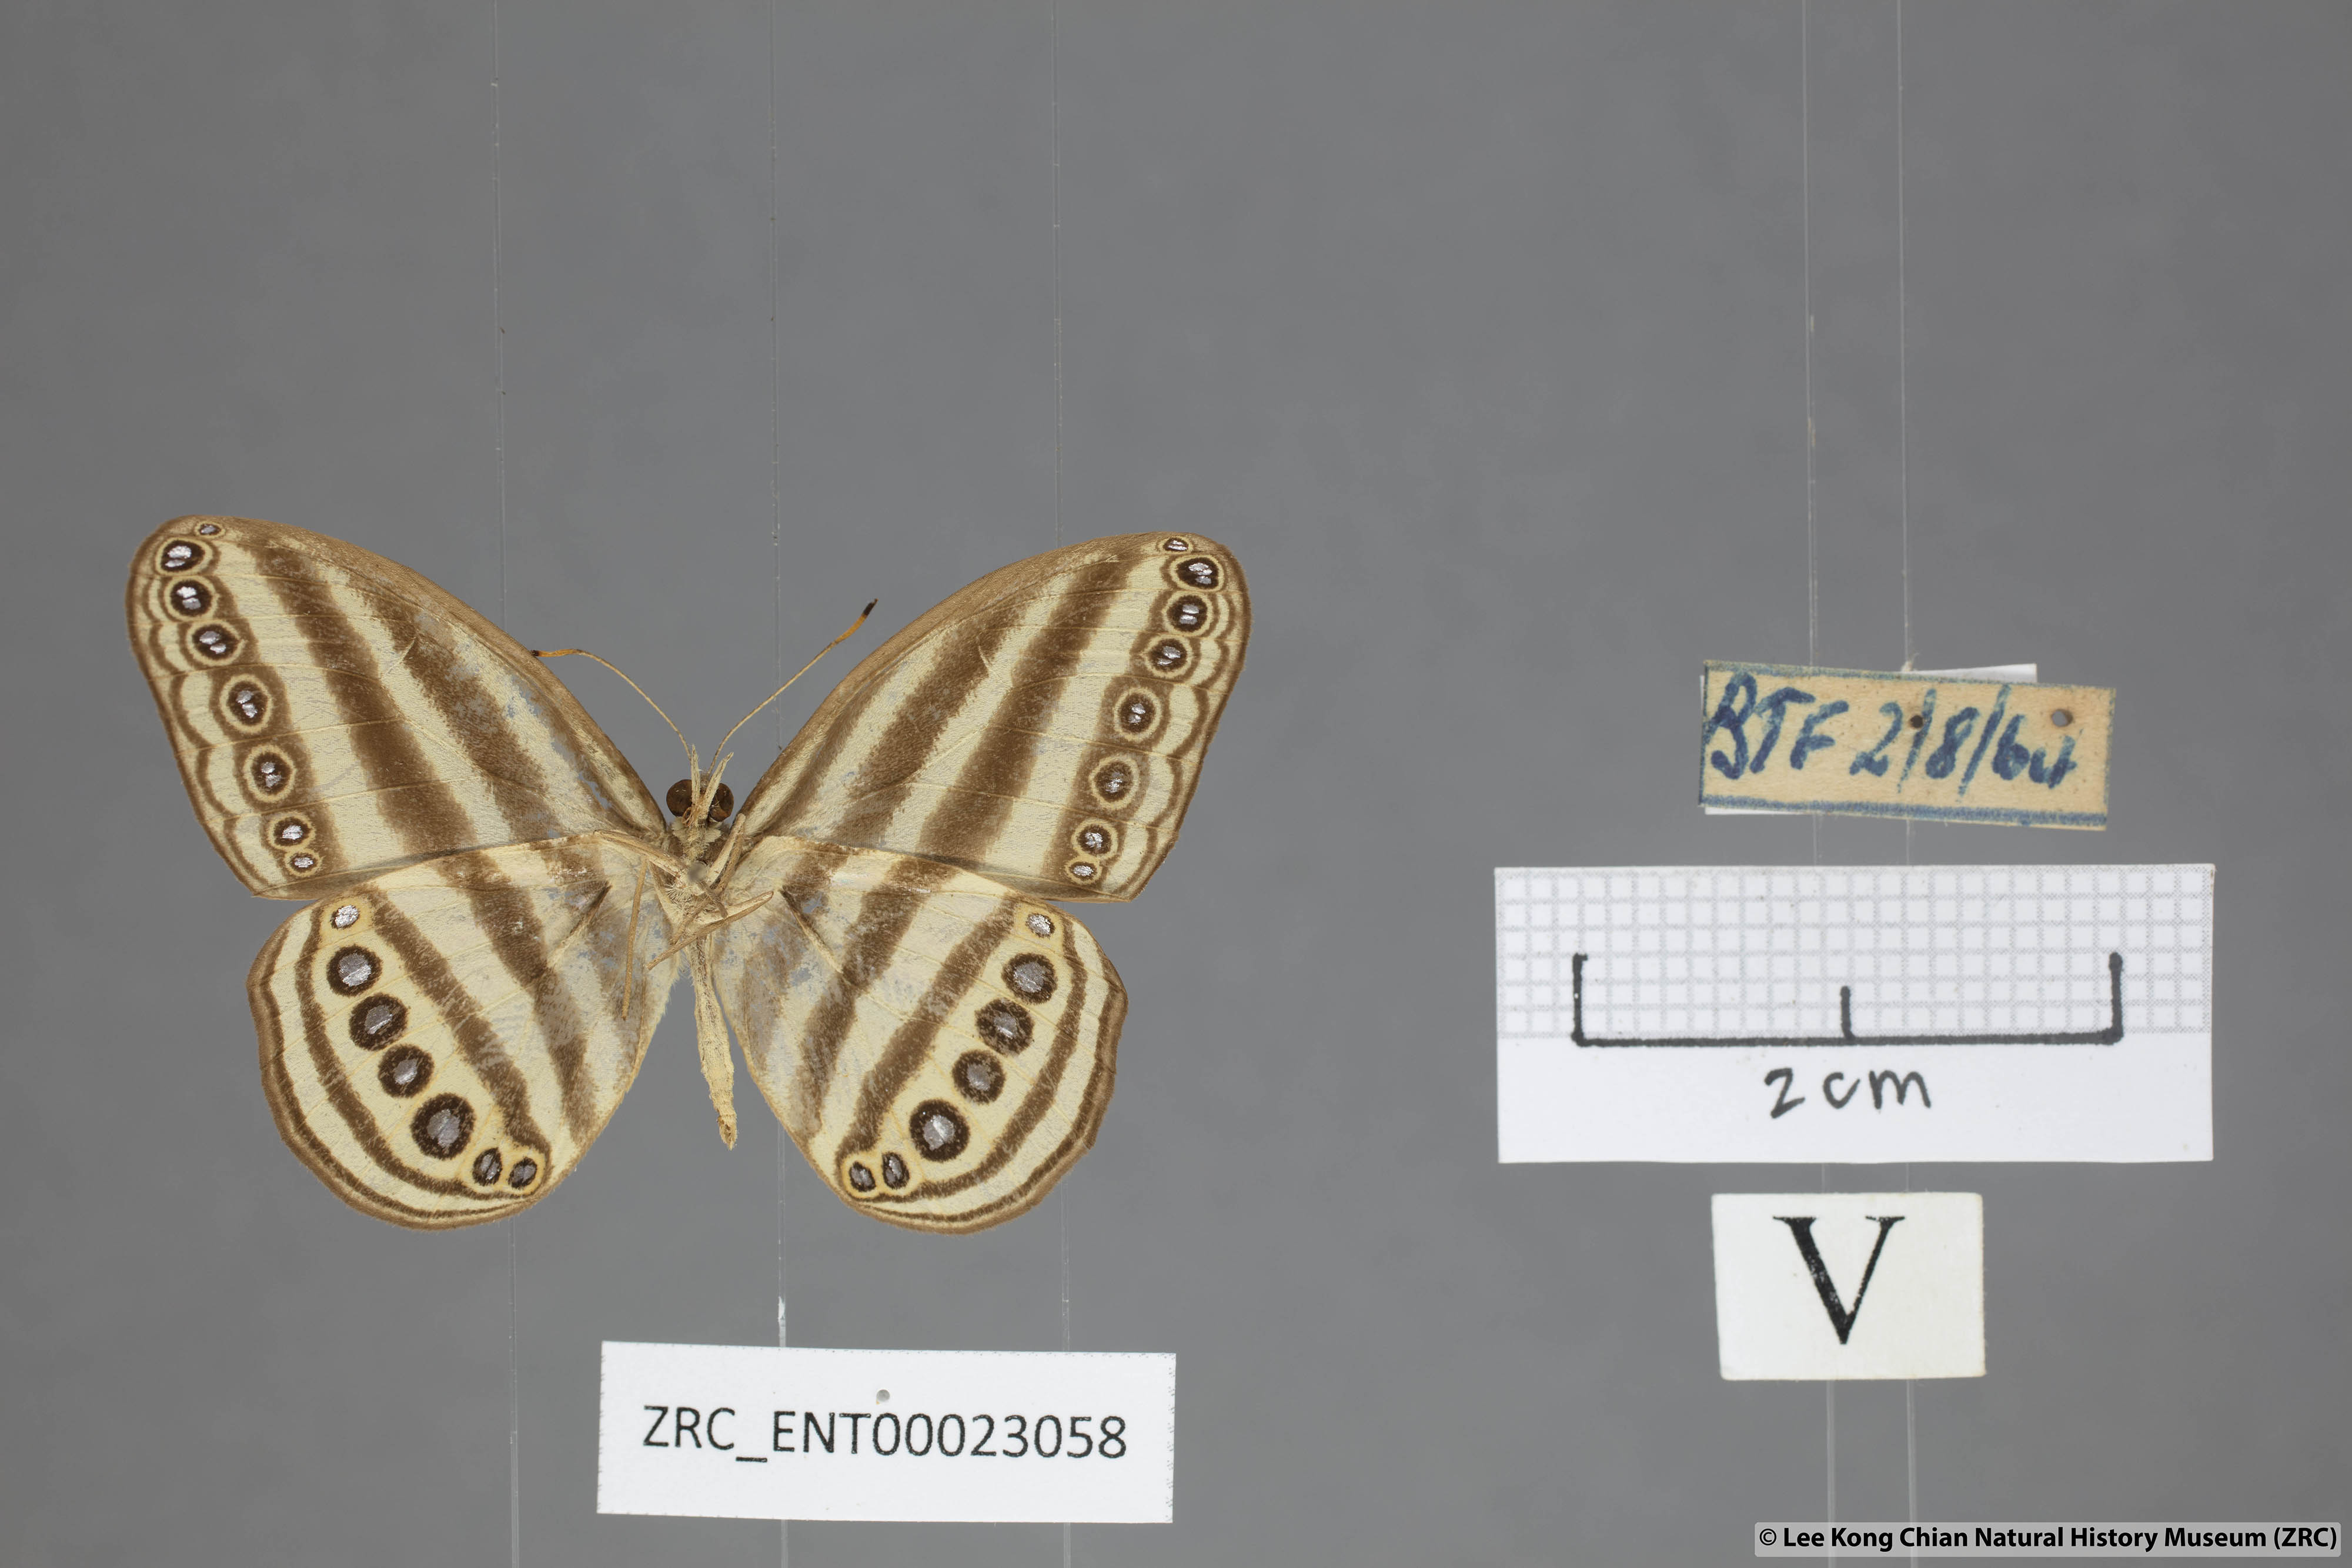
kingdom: Animalia
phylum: Arthropoda
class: Insecta
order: Lepidoptera
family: Nymphalidae
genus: Ragadia
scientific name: Ragadia makata
